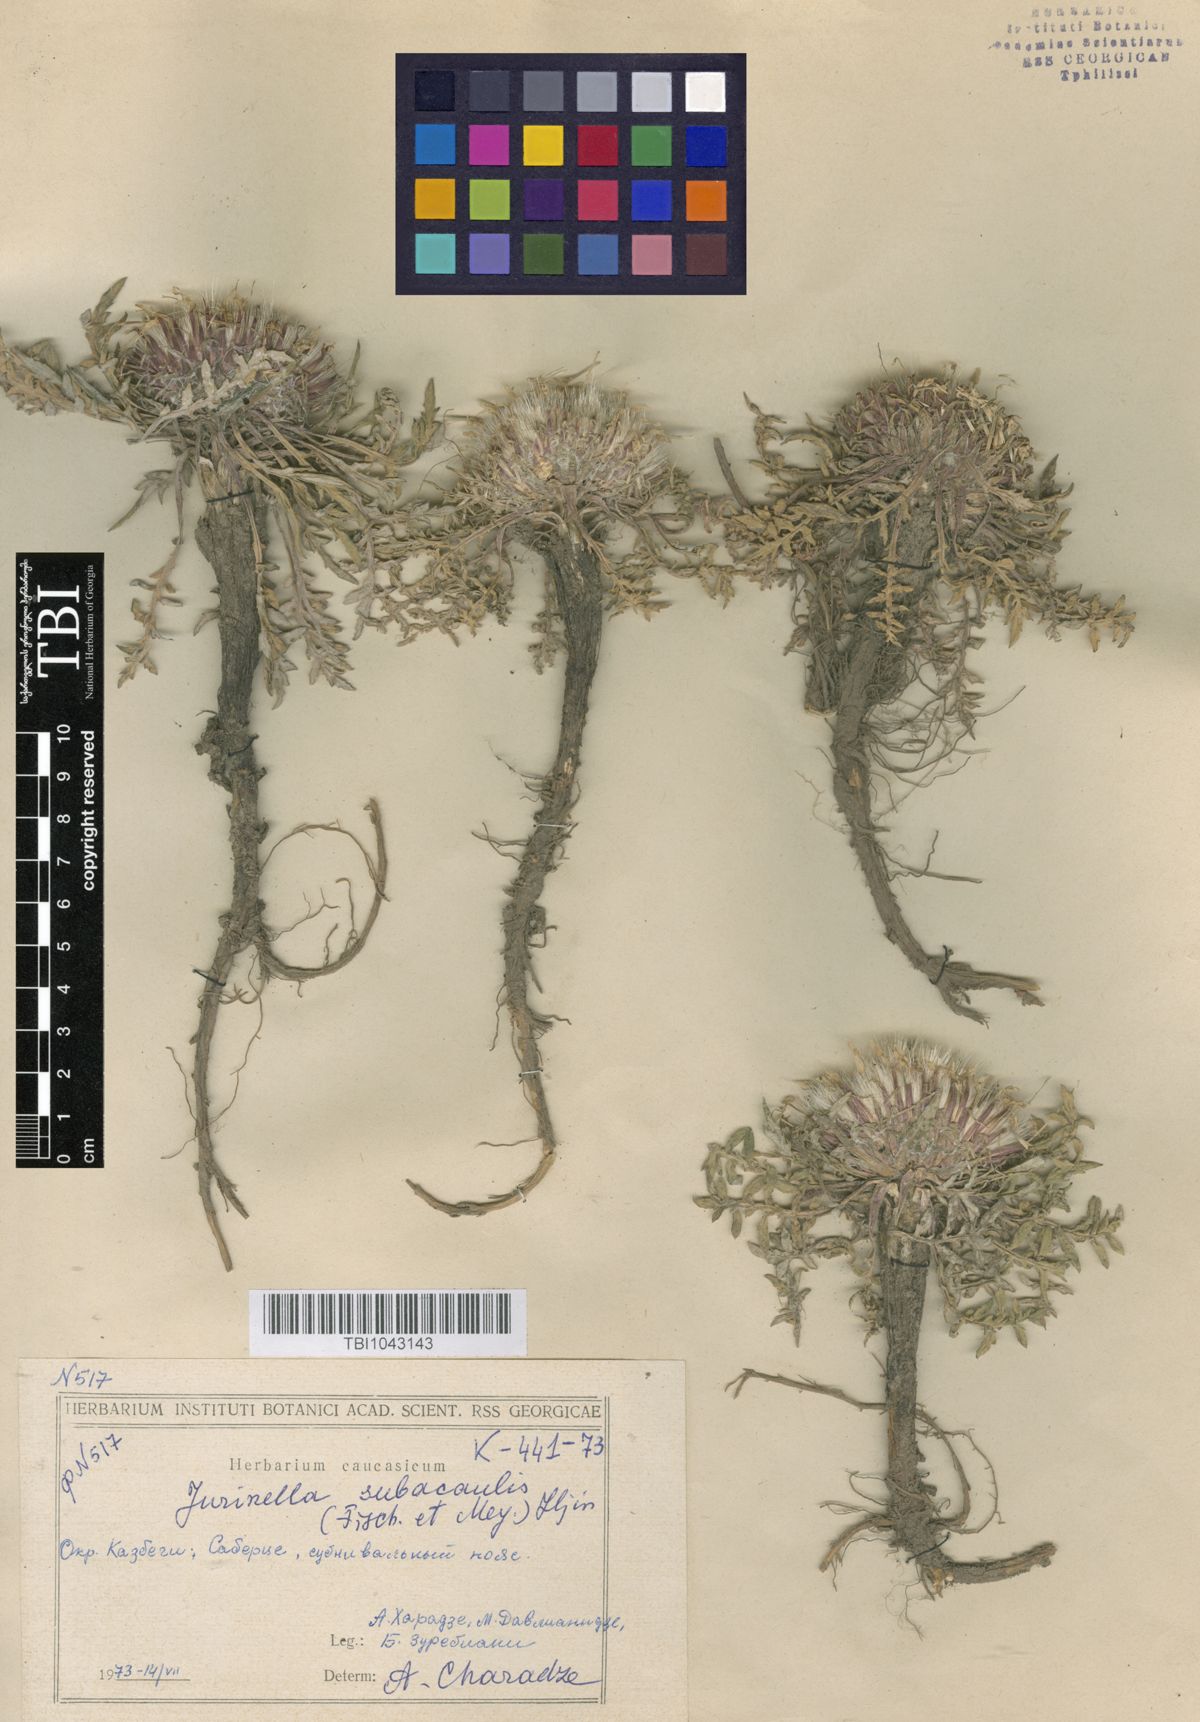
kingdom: Plantae
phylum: Tracheophyta
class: Magnoliopsida
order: Asterales
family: Asteraceae
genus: Jurinea
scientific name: Jurinea moschus
